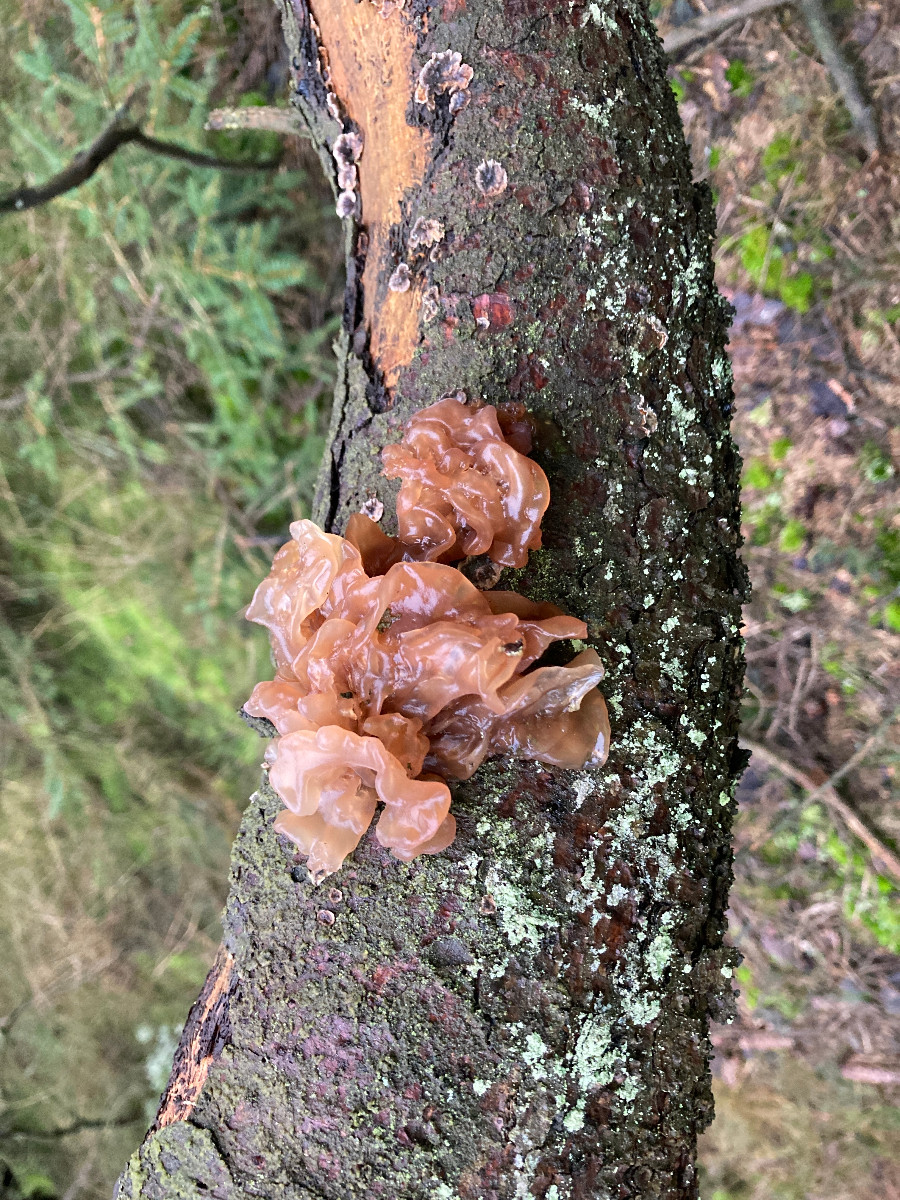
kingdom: Fungi
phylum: Basidiomycota
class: Tremellomycetes
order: Tremellales
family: Tremellaceae
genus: Phaeotremella
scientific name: Phaeotremella foliacea
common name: brun bævresvamp
